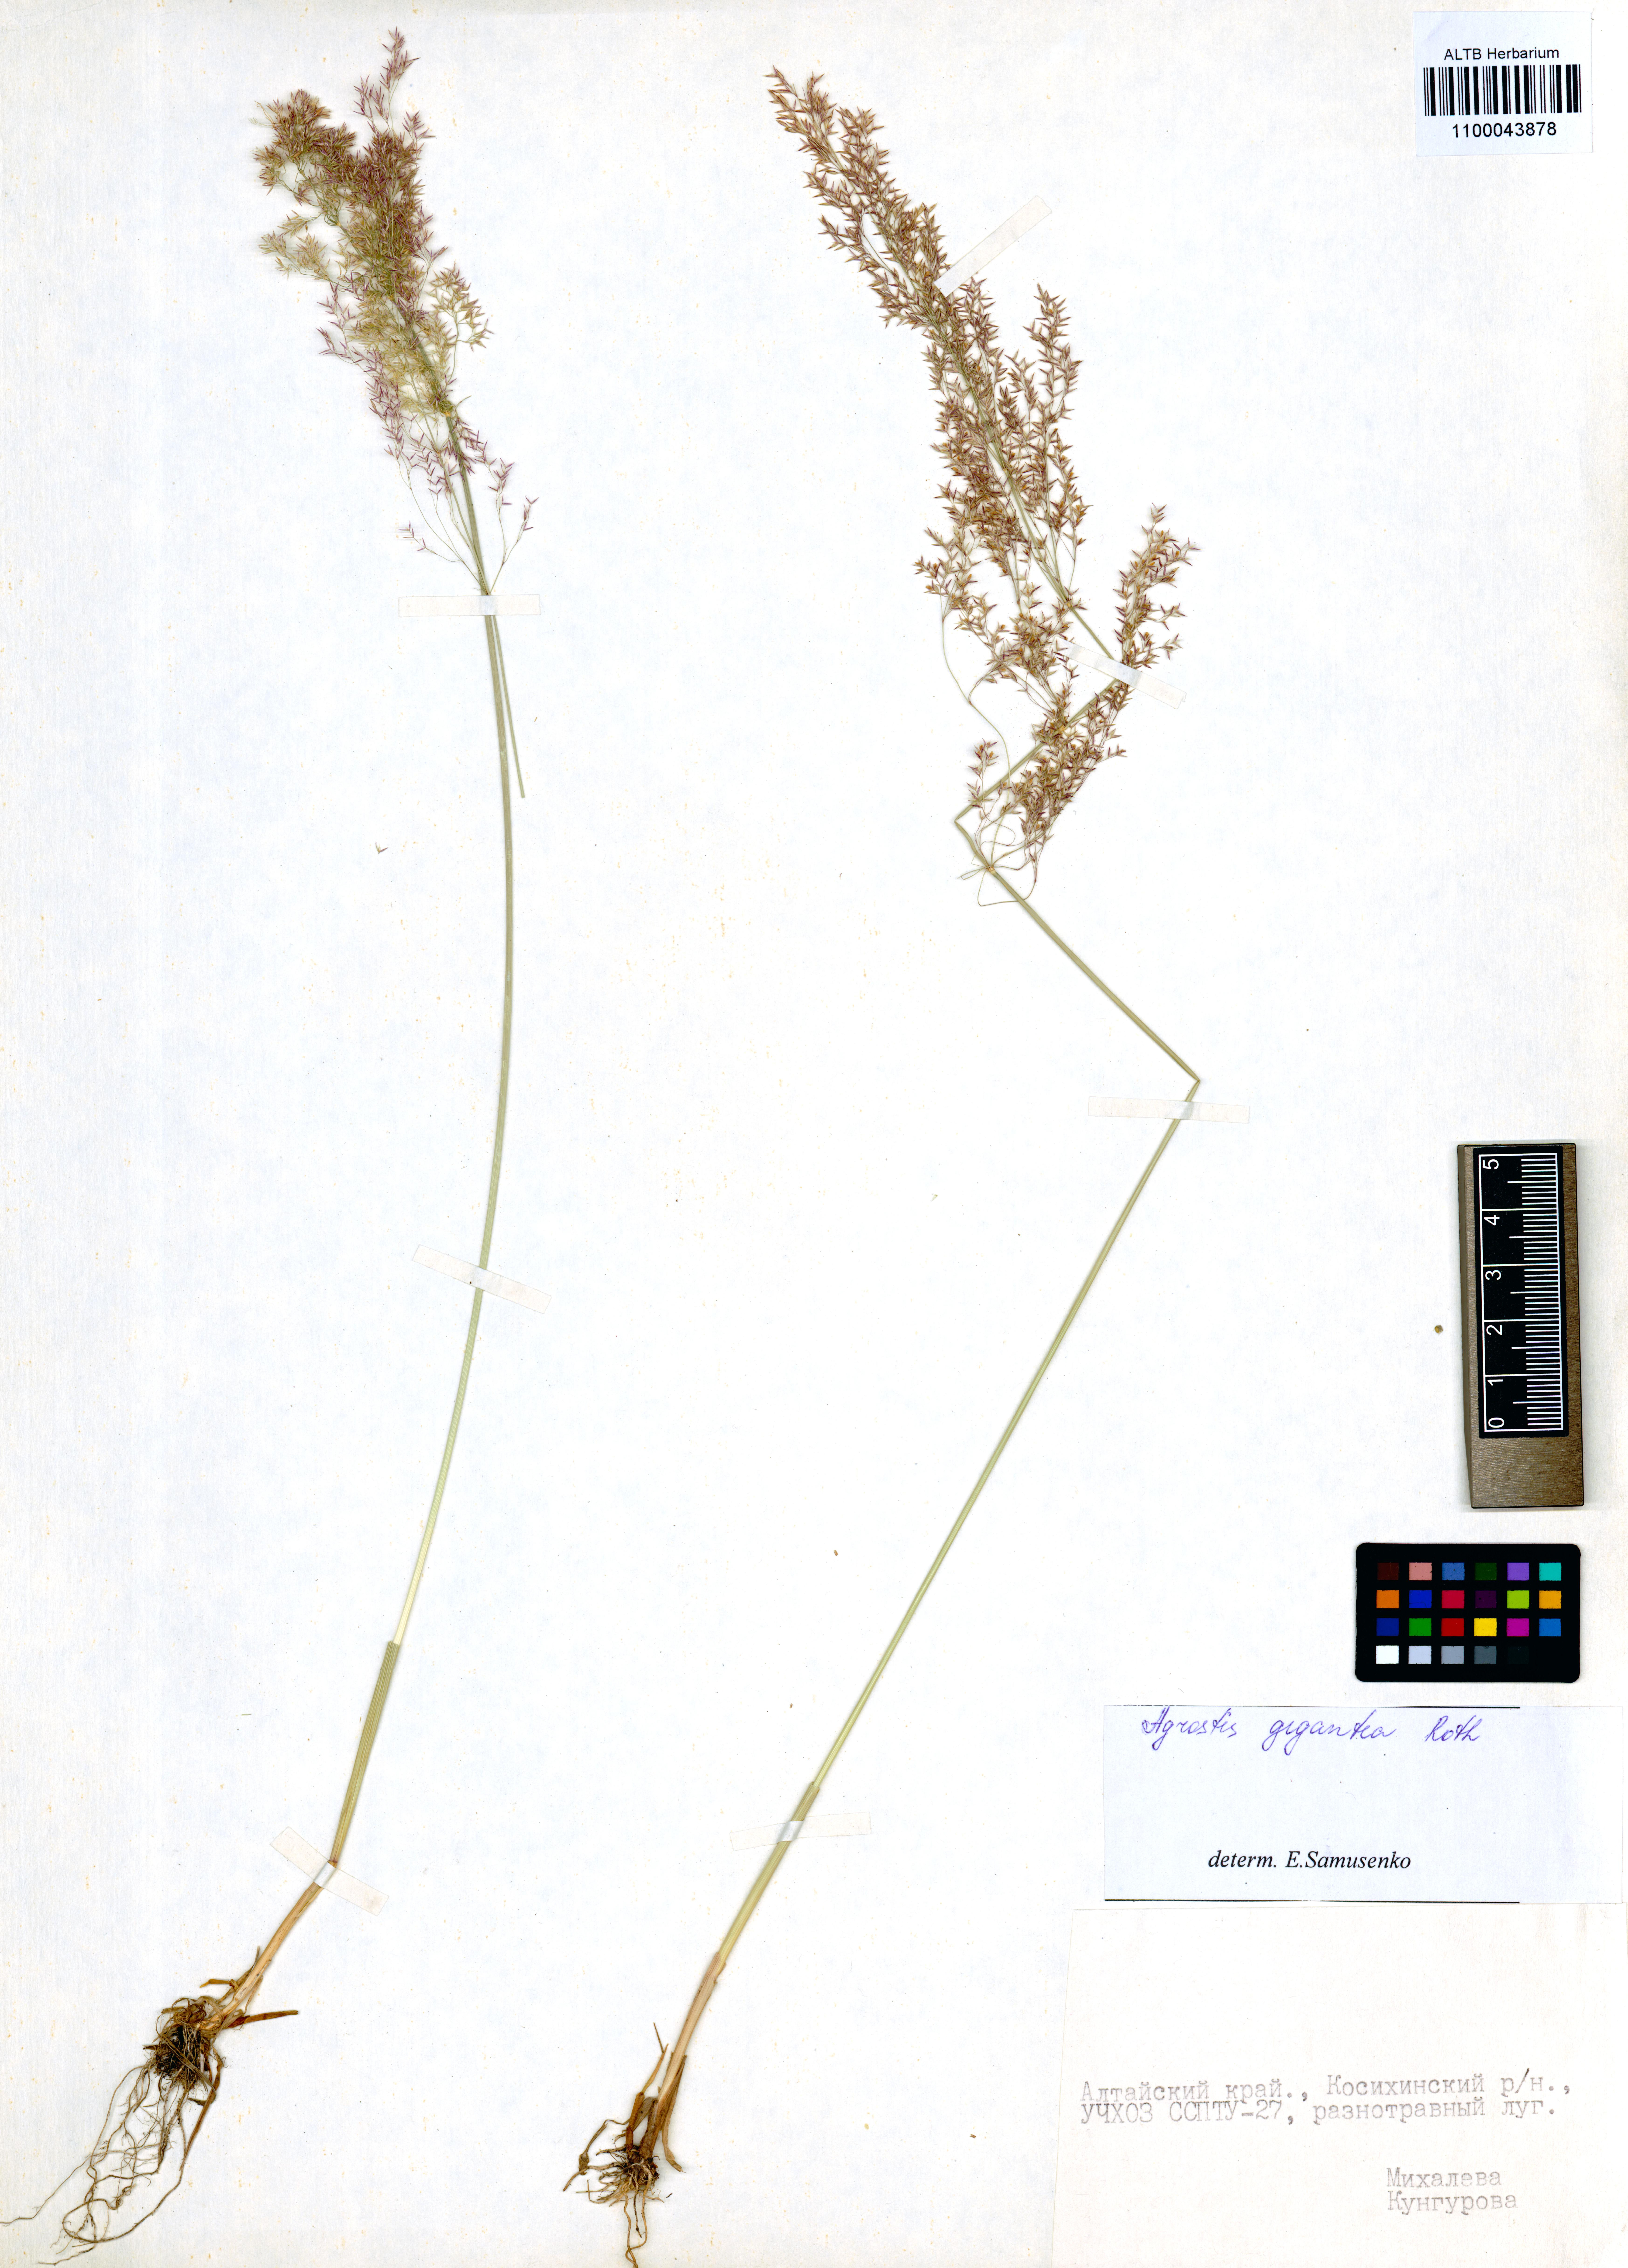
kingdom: Plantae
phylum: Tracheophyta
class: Liliopsida
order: Poales
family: Poaceae
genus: Agrostis
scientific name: Agrostis gigantea
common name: Black bent
